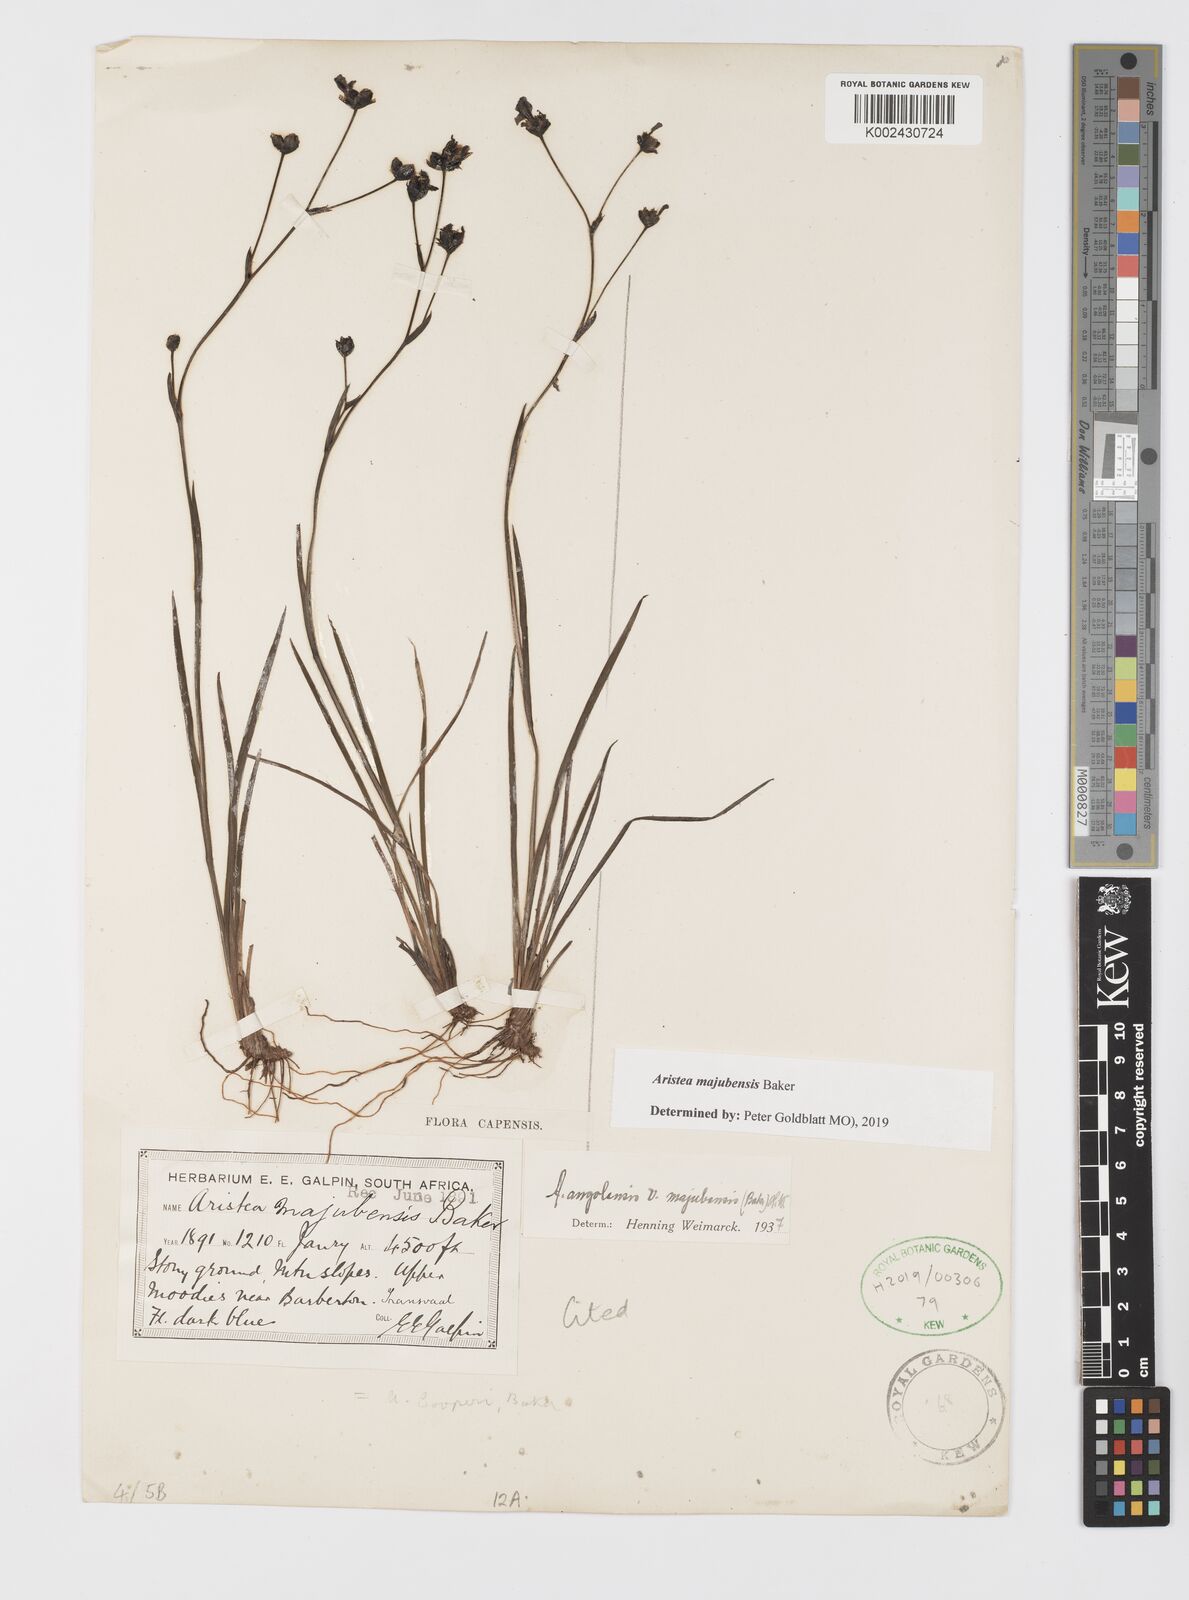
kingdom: Plantae
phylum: Tracheophyta
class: Liliopsida
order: Asparagales
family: Iridaceae
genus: Aristea
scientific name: Aristea majubensis
